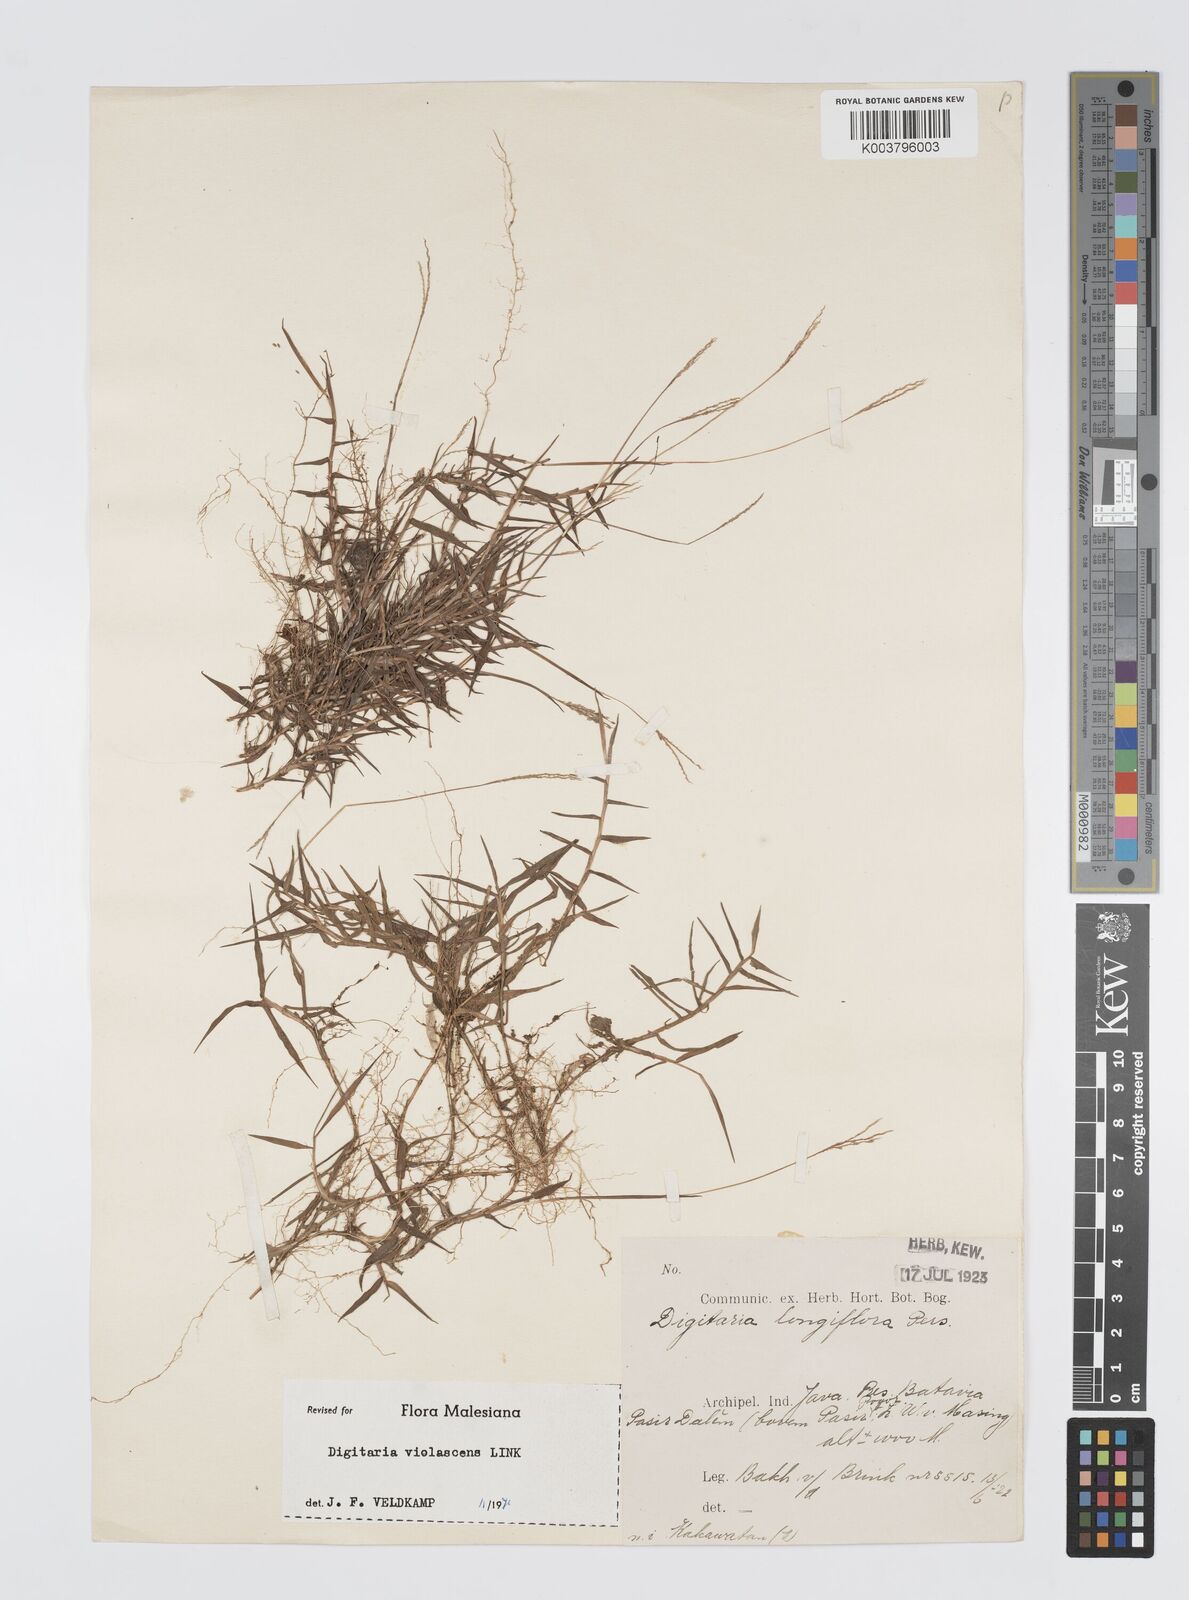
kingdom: Plantae
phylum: Tracheophyta
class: Liliopsida
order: Poales
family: Poaceae
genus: Digitaria
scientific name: Digitaria violascens
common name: Violet crabgrass
